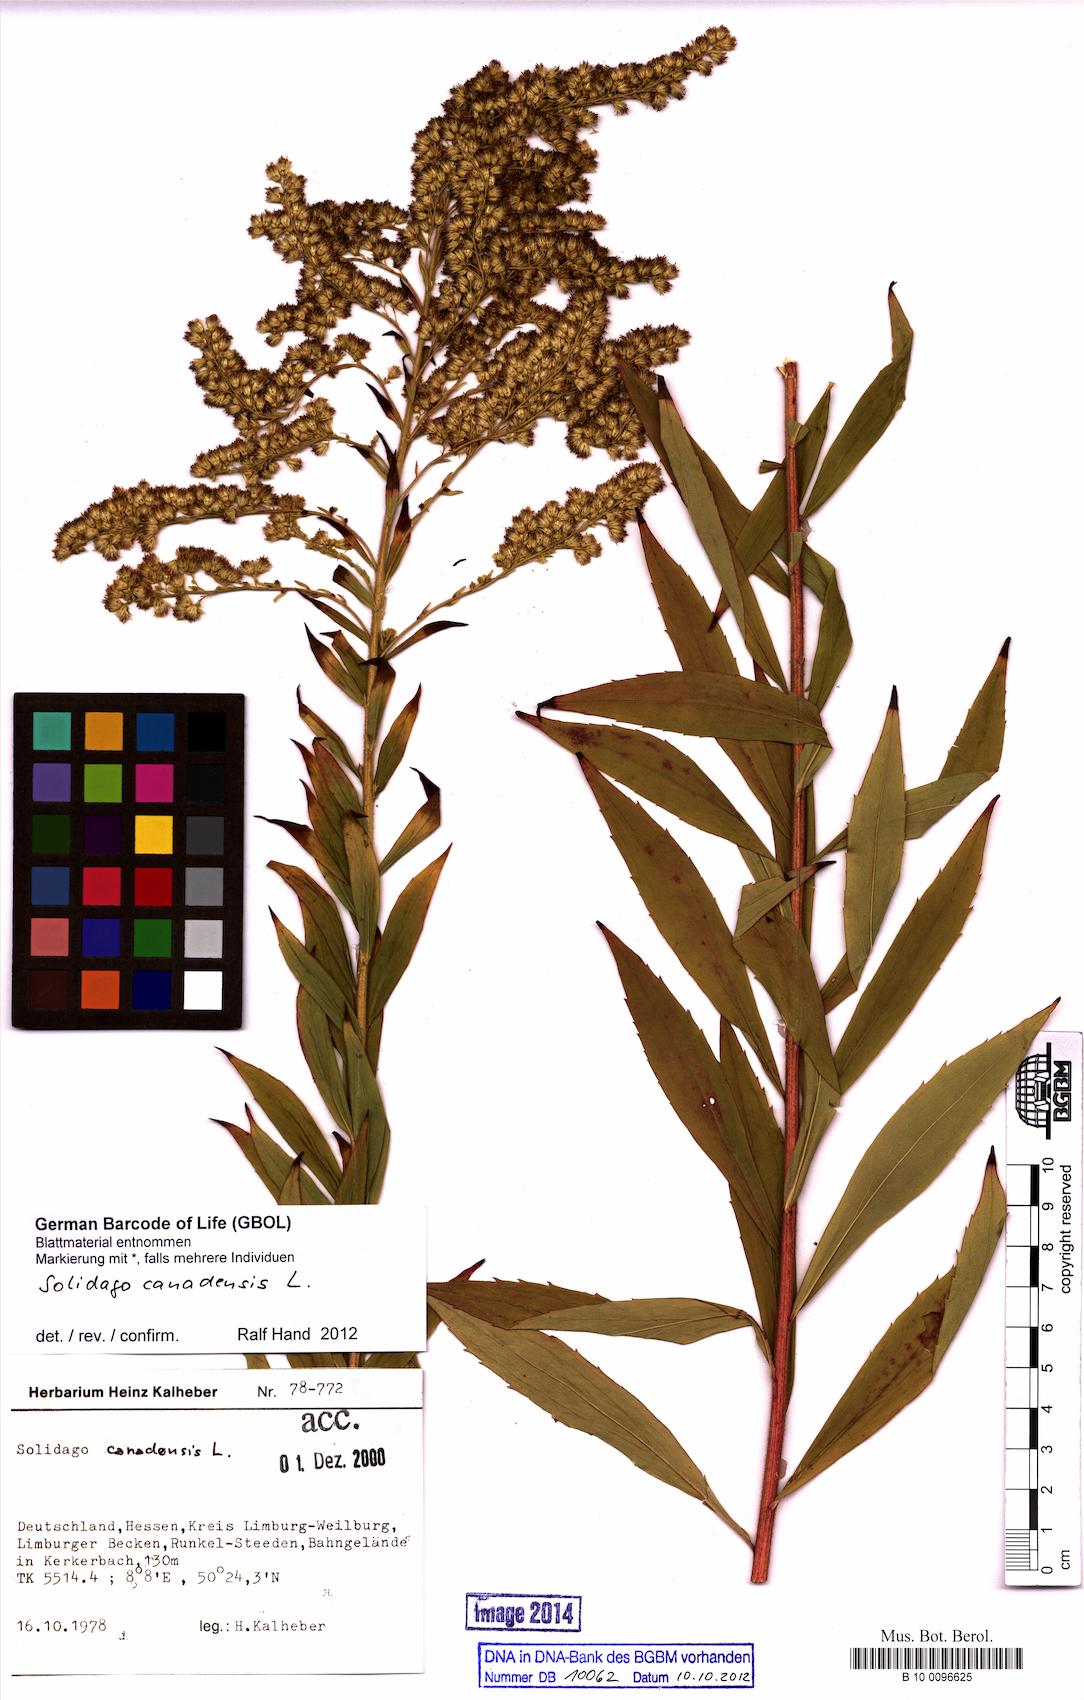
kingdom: Plantae
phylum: Tracheophyta
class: Magnoliopsida
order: Asterales
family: Asteraceae
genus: Solidago
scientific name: Solidago canadensis
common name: Canada goldenrod
